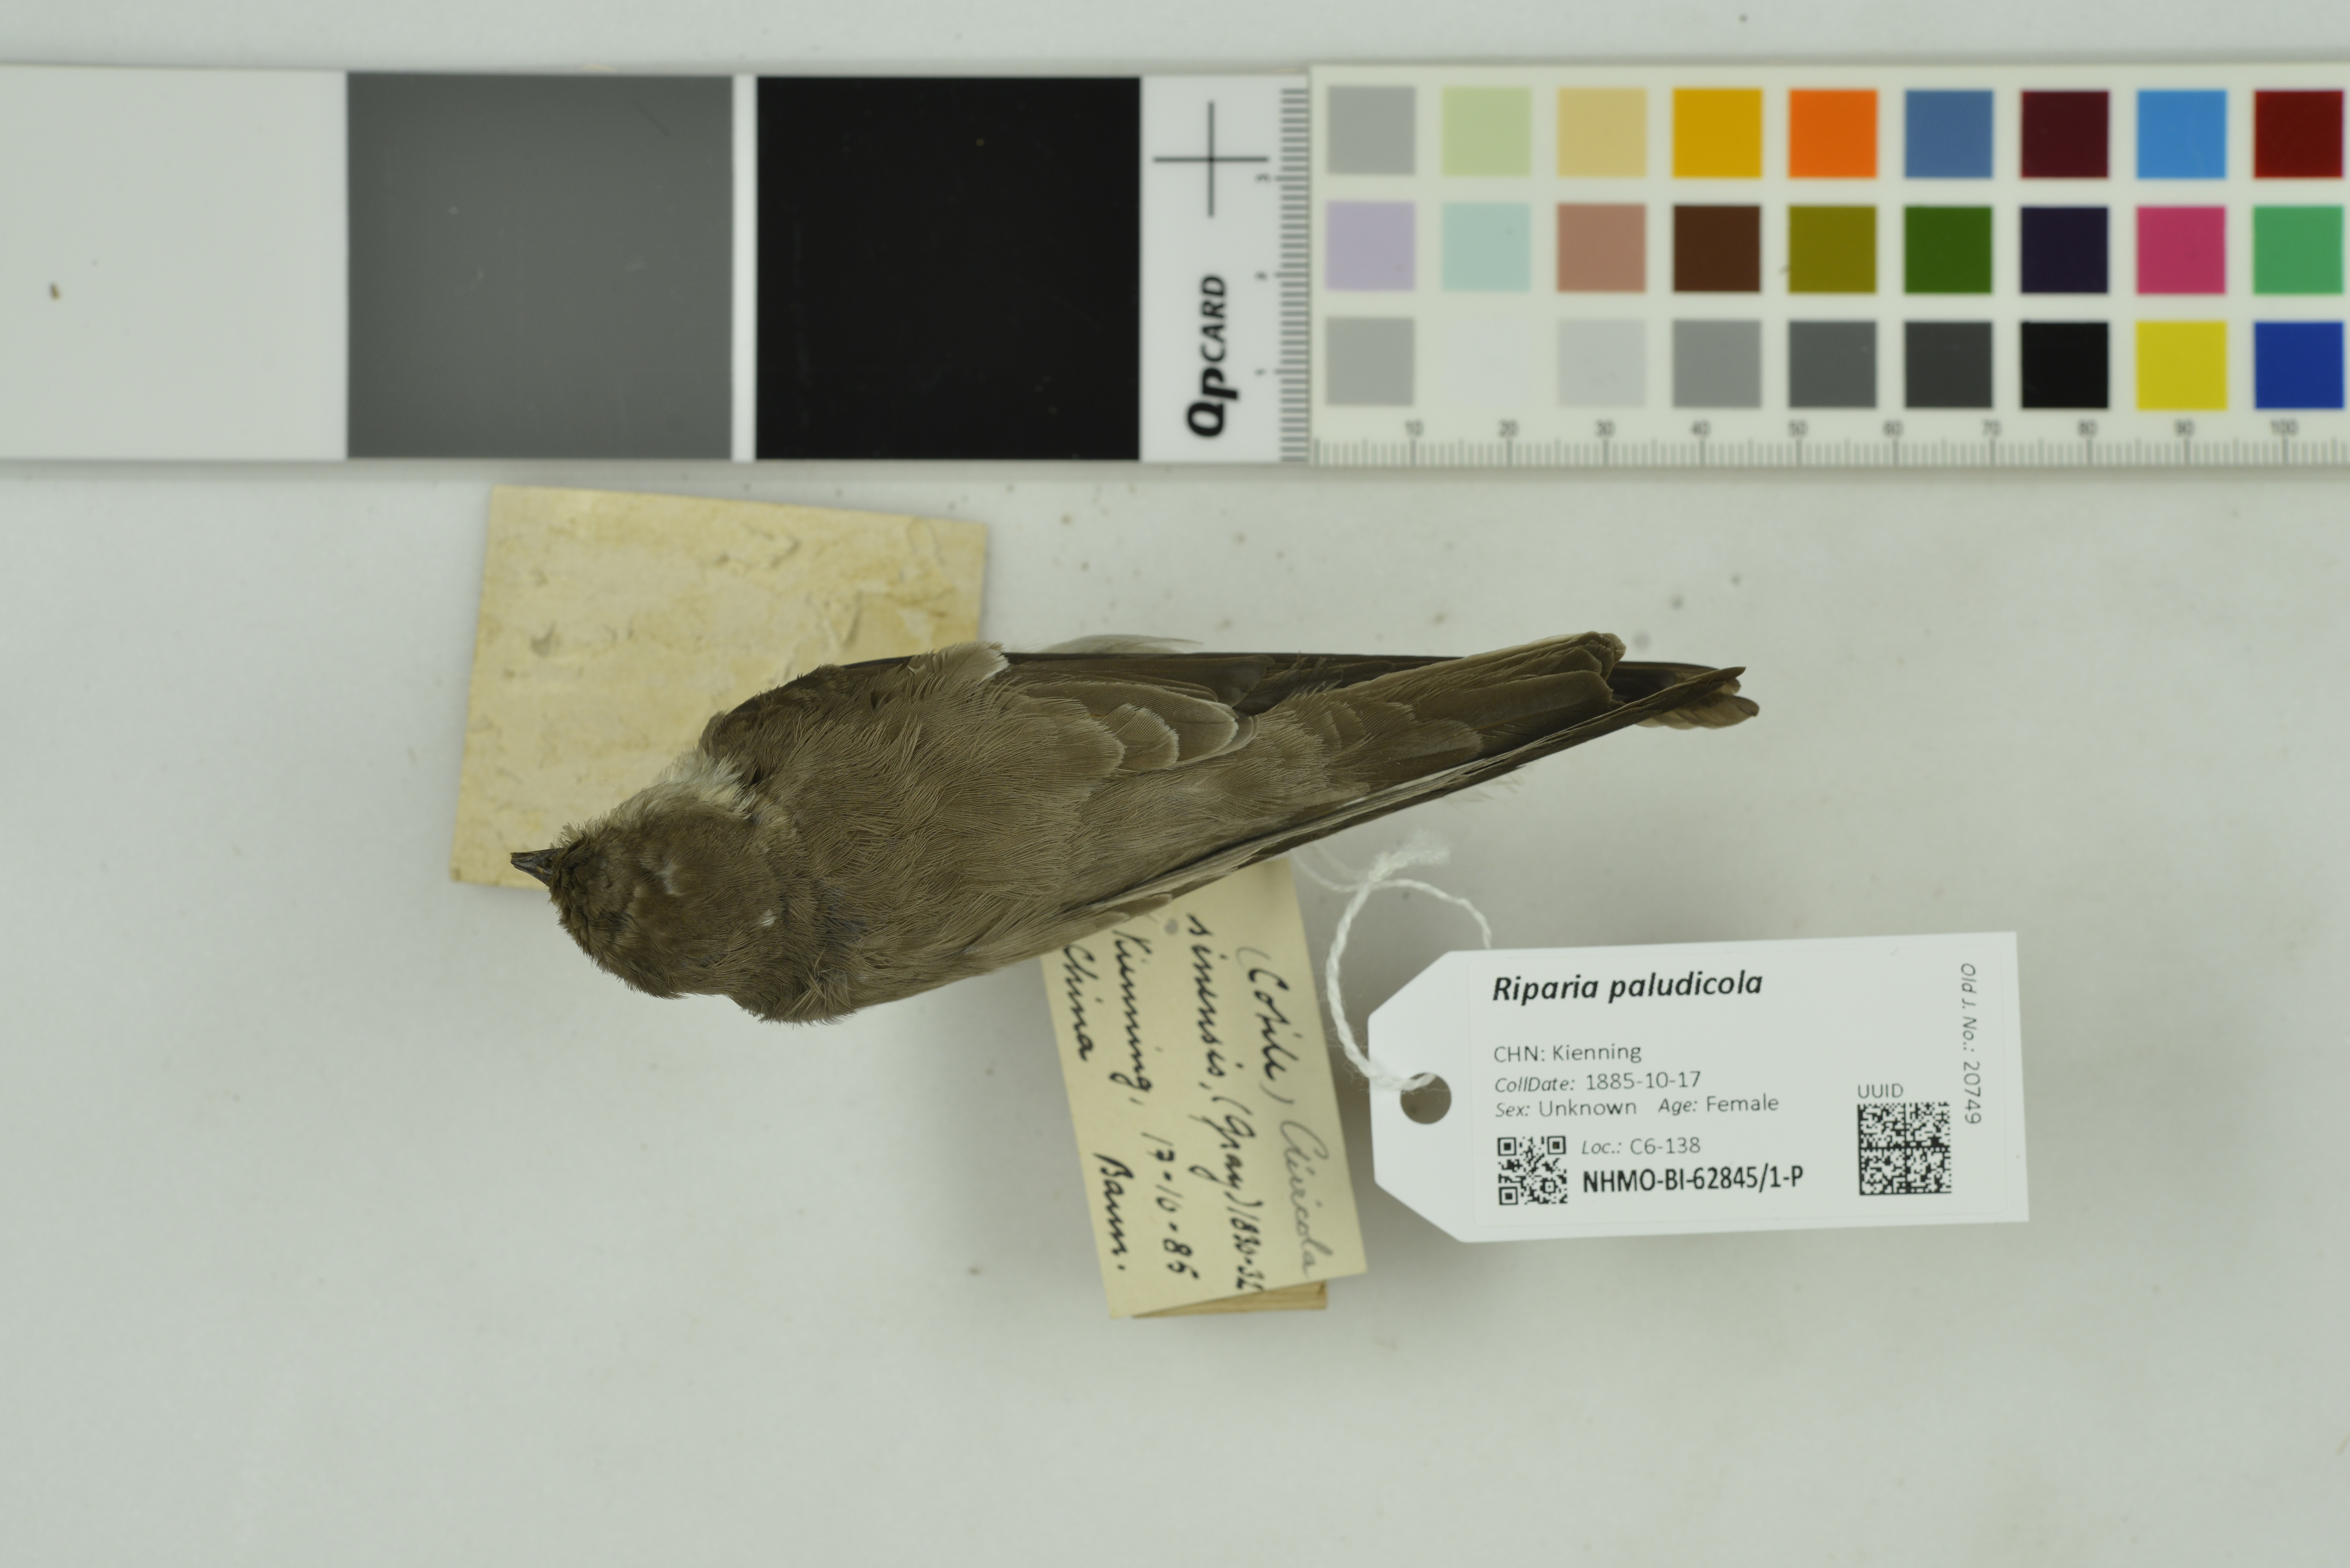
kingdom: Animalia
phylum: Chordata
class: Aves
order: Passeriformes
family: Hirundinidae
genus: Riparia
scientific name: Riparia paludicola
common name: Brown-throated martin
